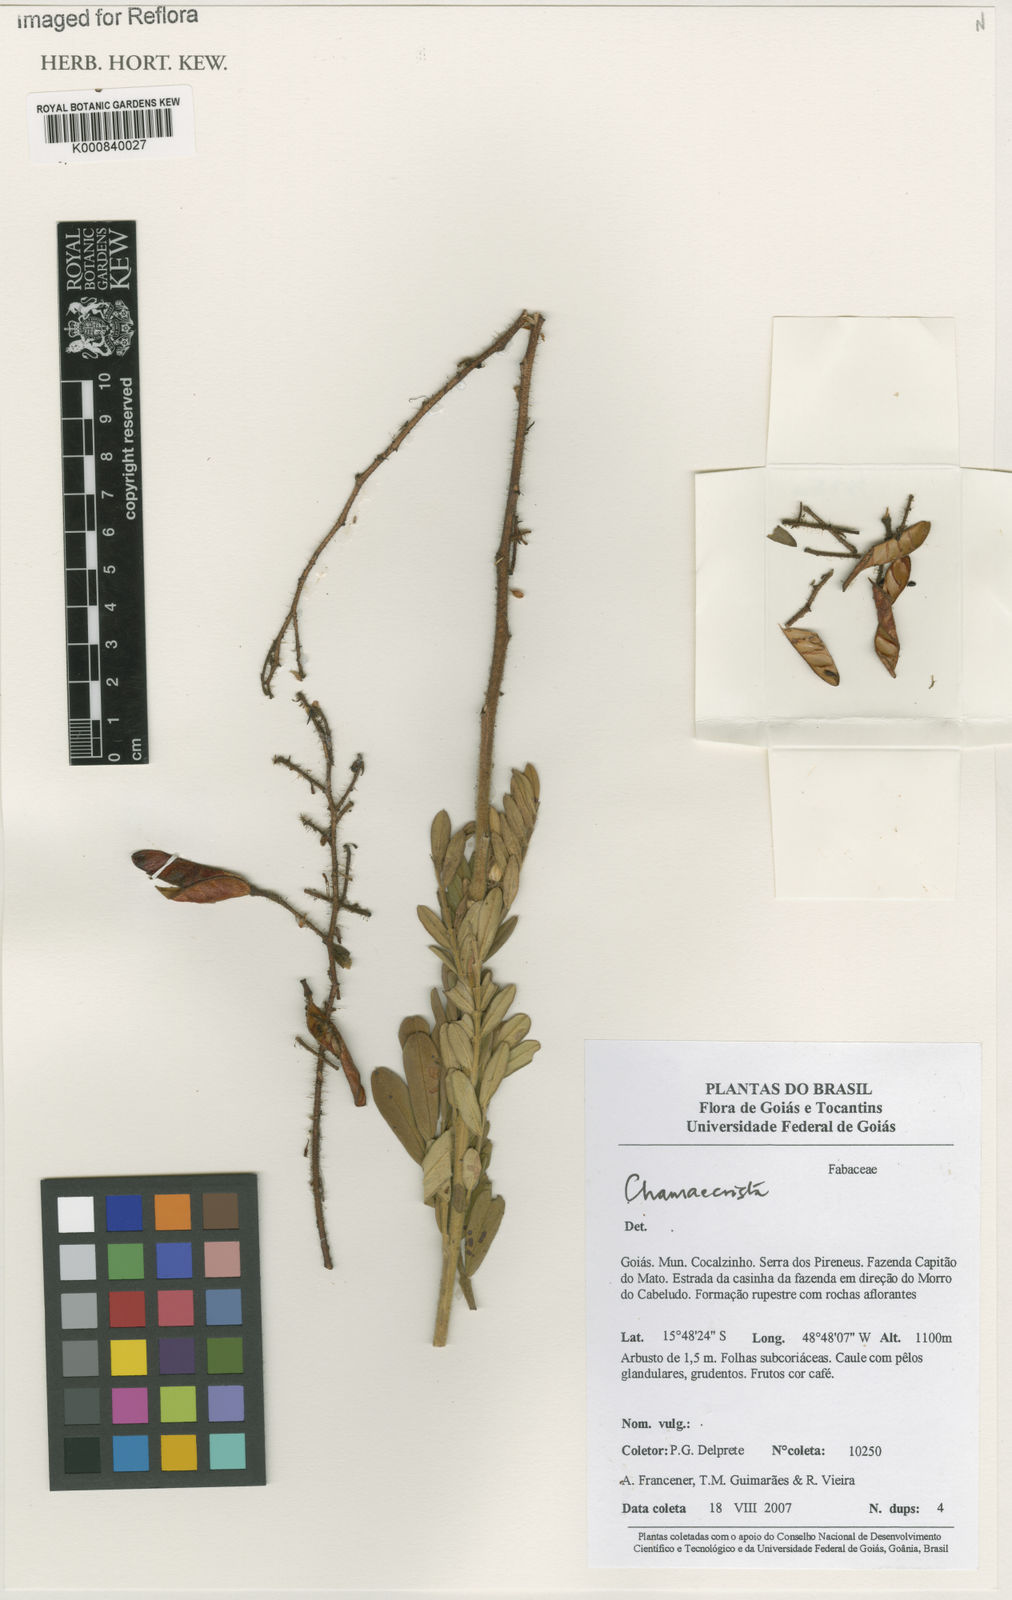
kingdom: Plantae
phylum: Tracheophyta
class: Magnoliopsida
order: Fabales
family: Fabaceae
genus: Chamaecrista
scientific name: Chamaecrista paniculata
